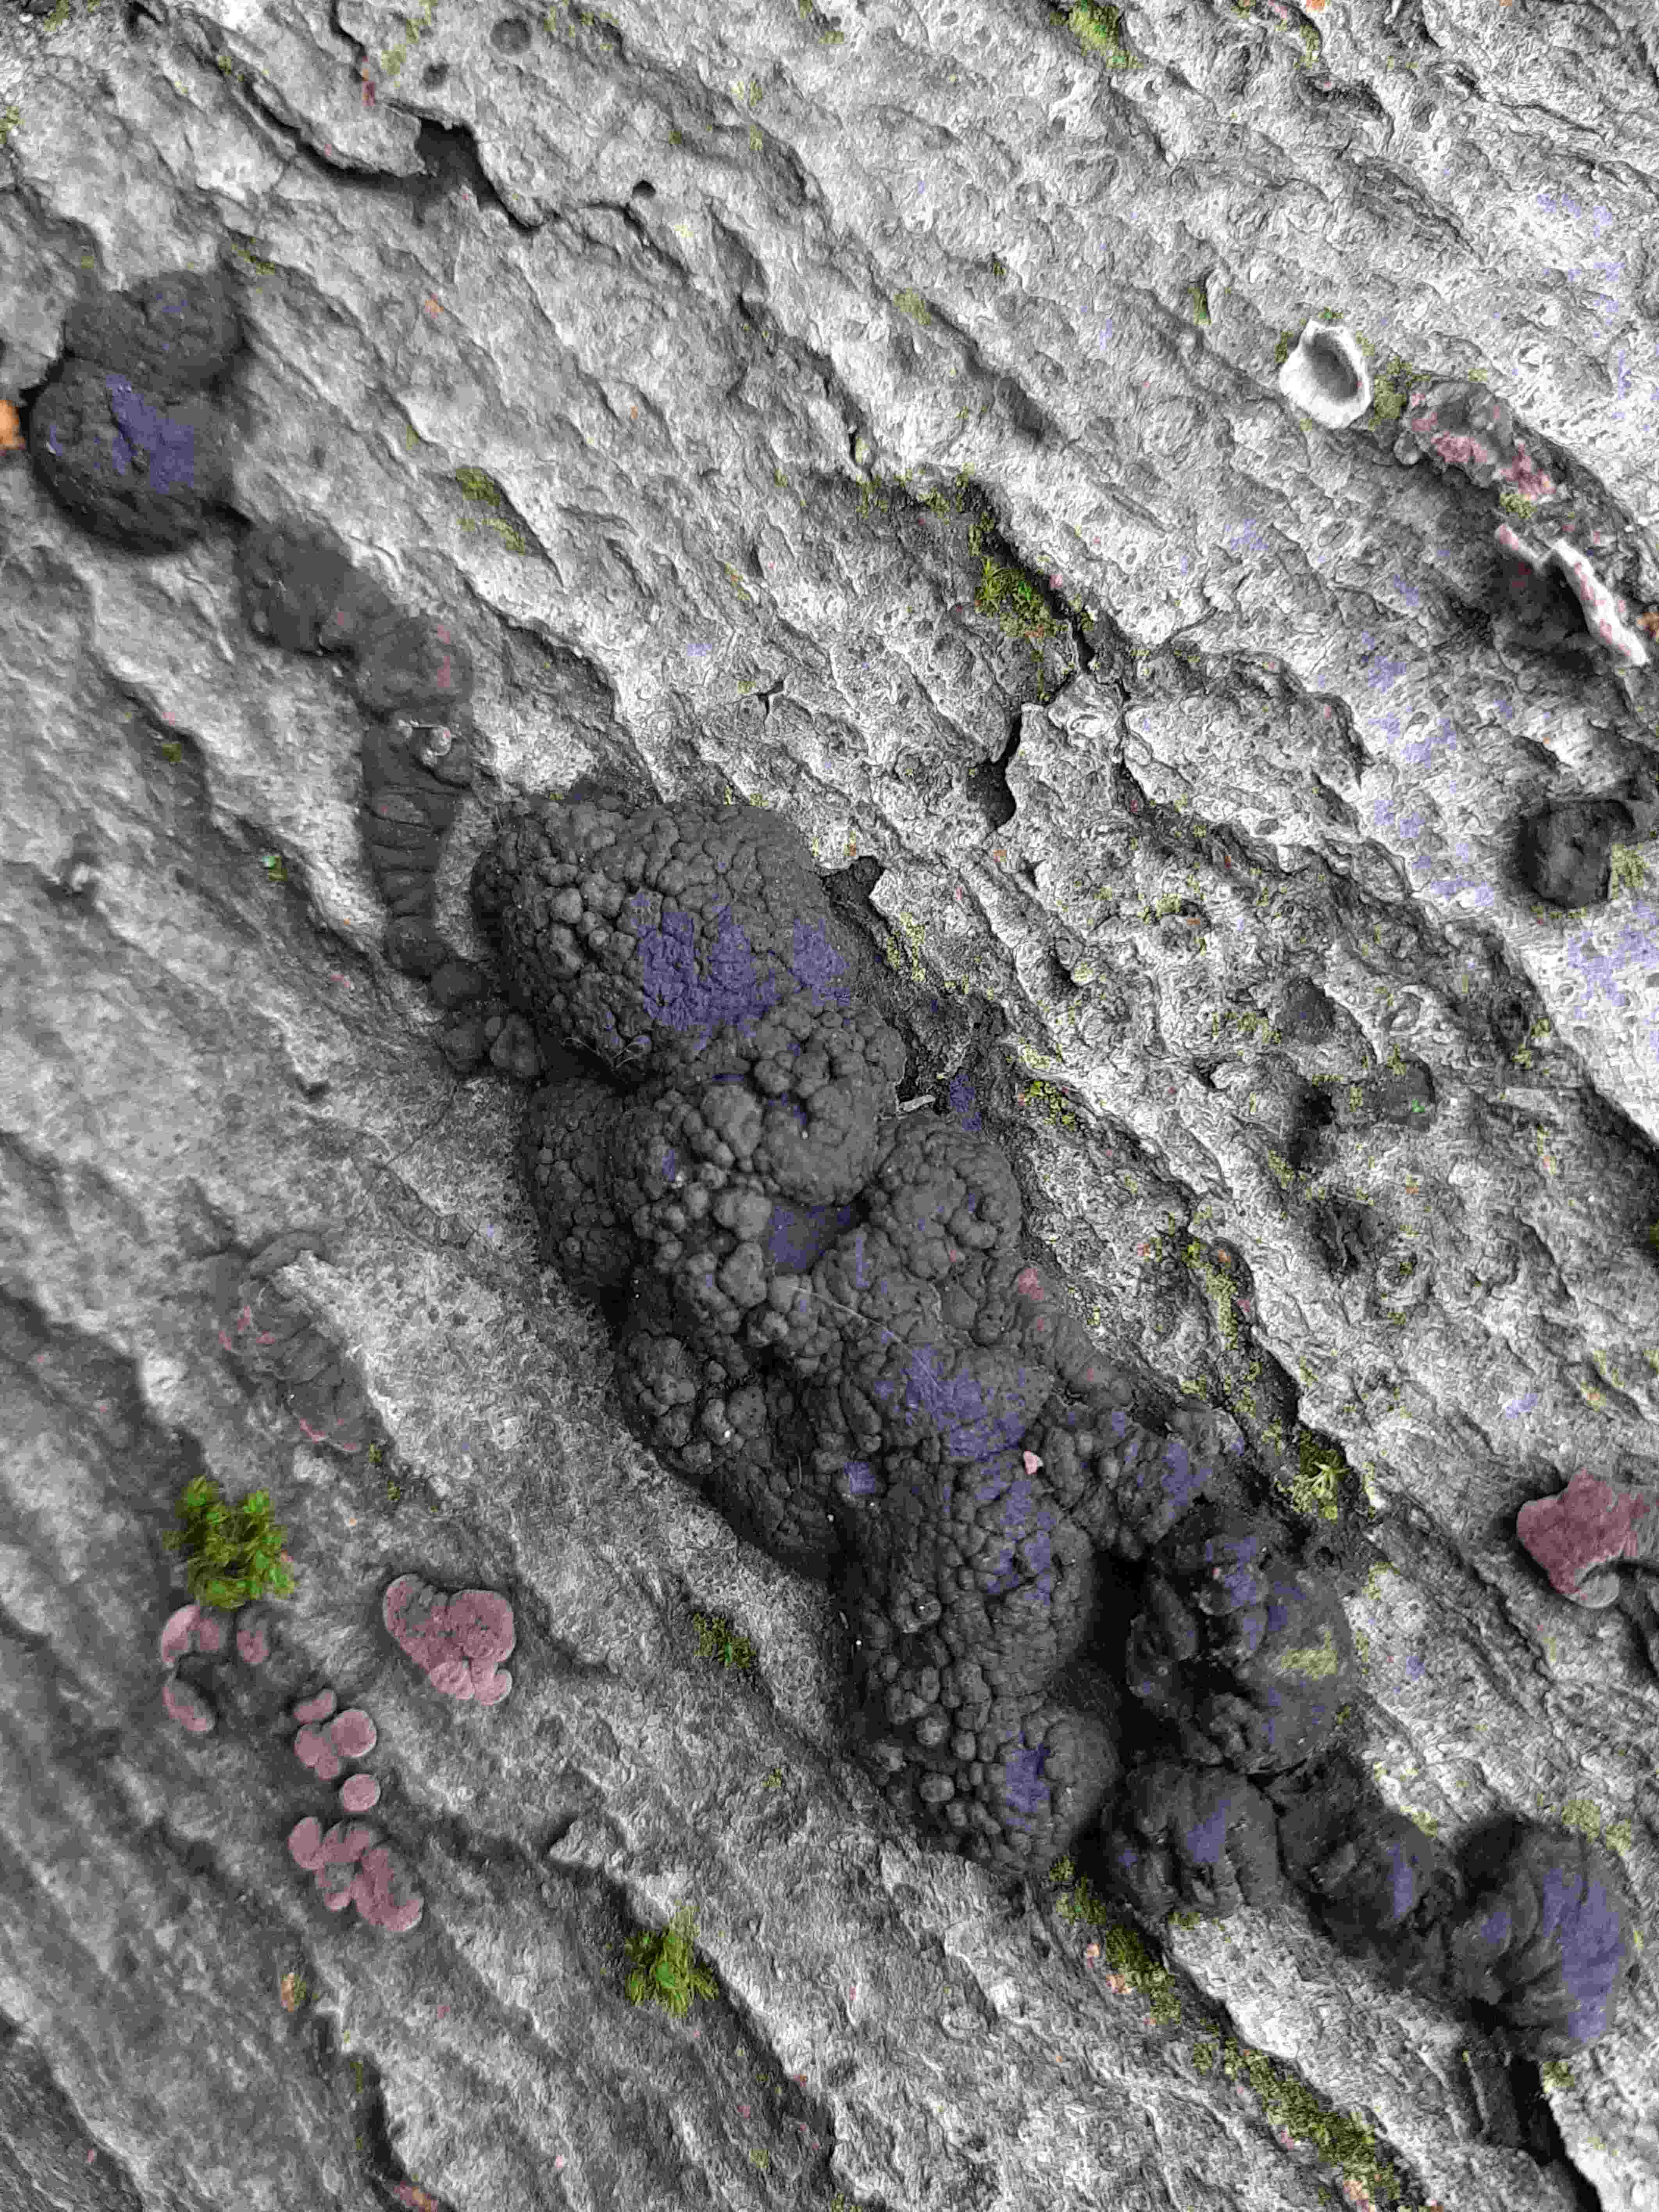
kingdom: Fungi
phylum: Ascomycota
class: Sordariomycetes
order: Xylariales
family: Hypoxylaceae
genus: Jackrogersella
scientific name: Jackrogersella cohaerens
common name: sammenflydende kulbær
